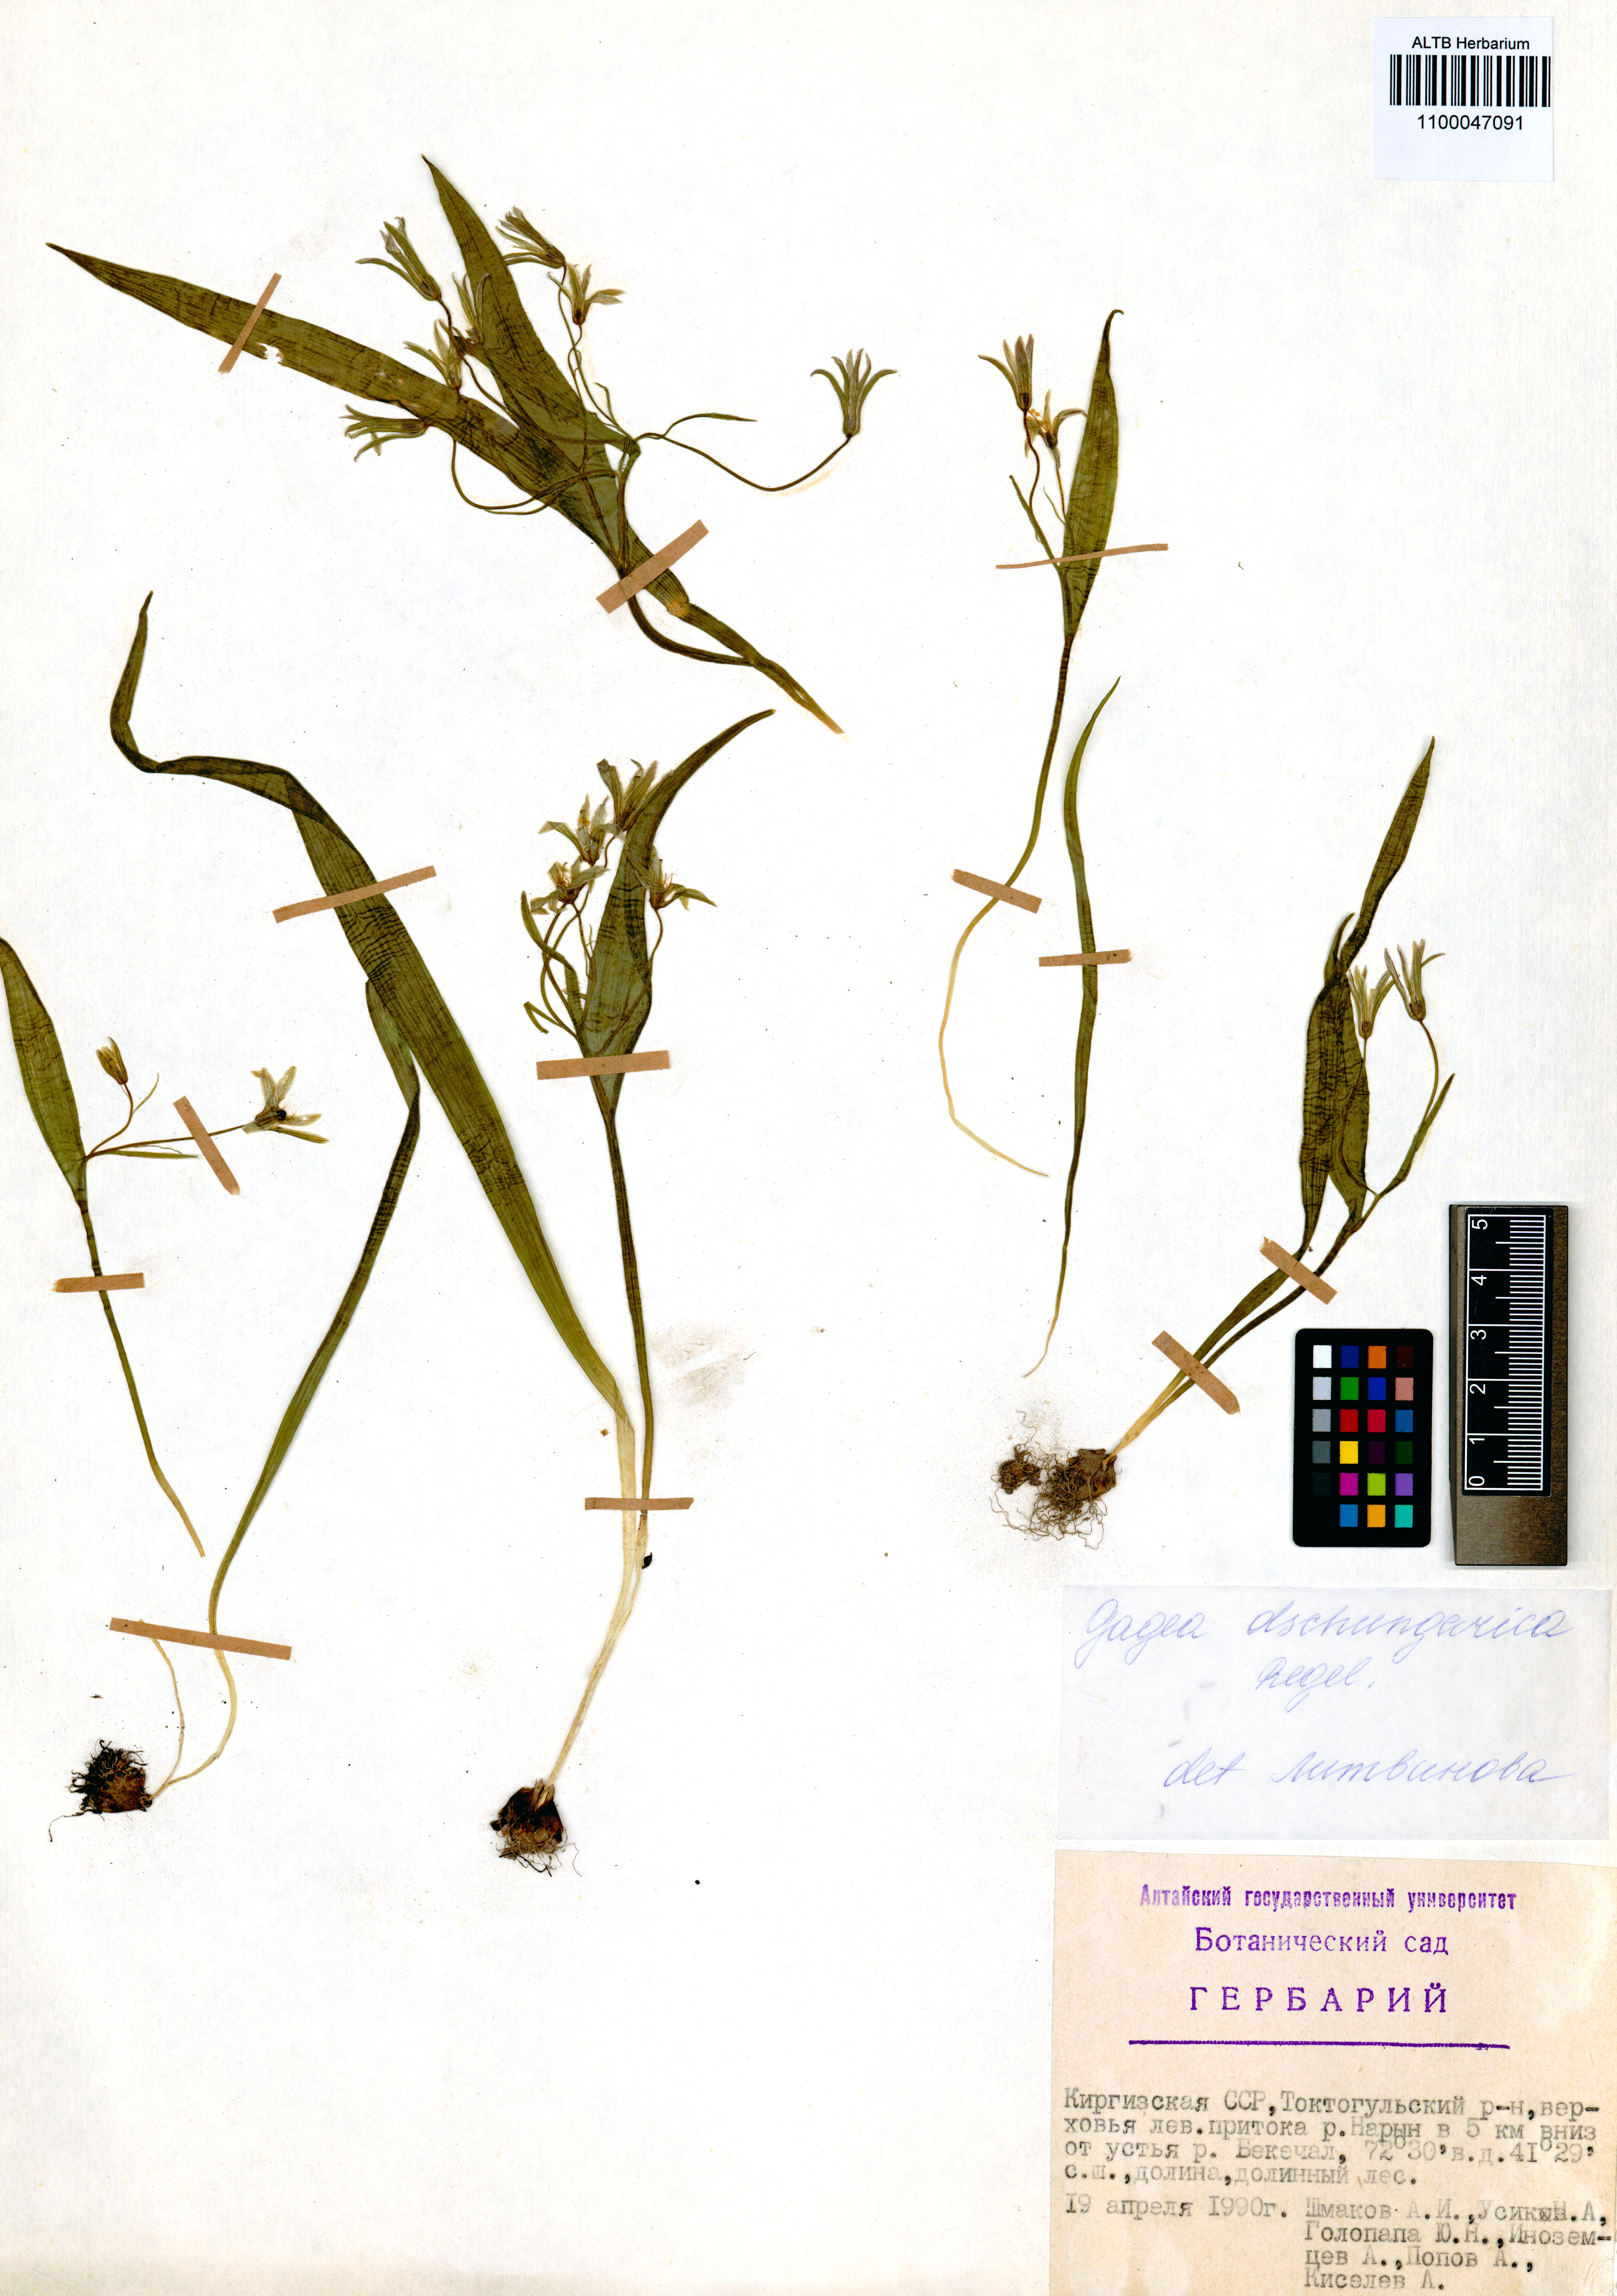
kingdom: Plantae
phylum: Tracheophyta
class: Liliopsida
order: Liliales
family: Liliaceae
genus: Gagea
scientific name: Gagea dschungarica
